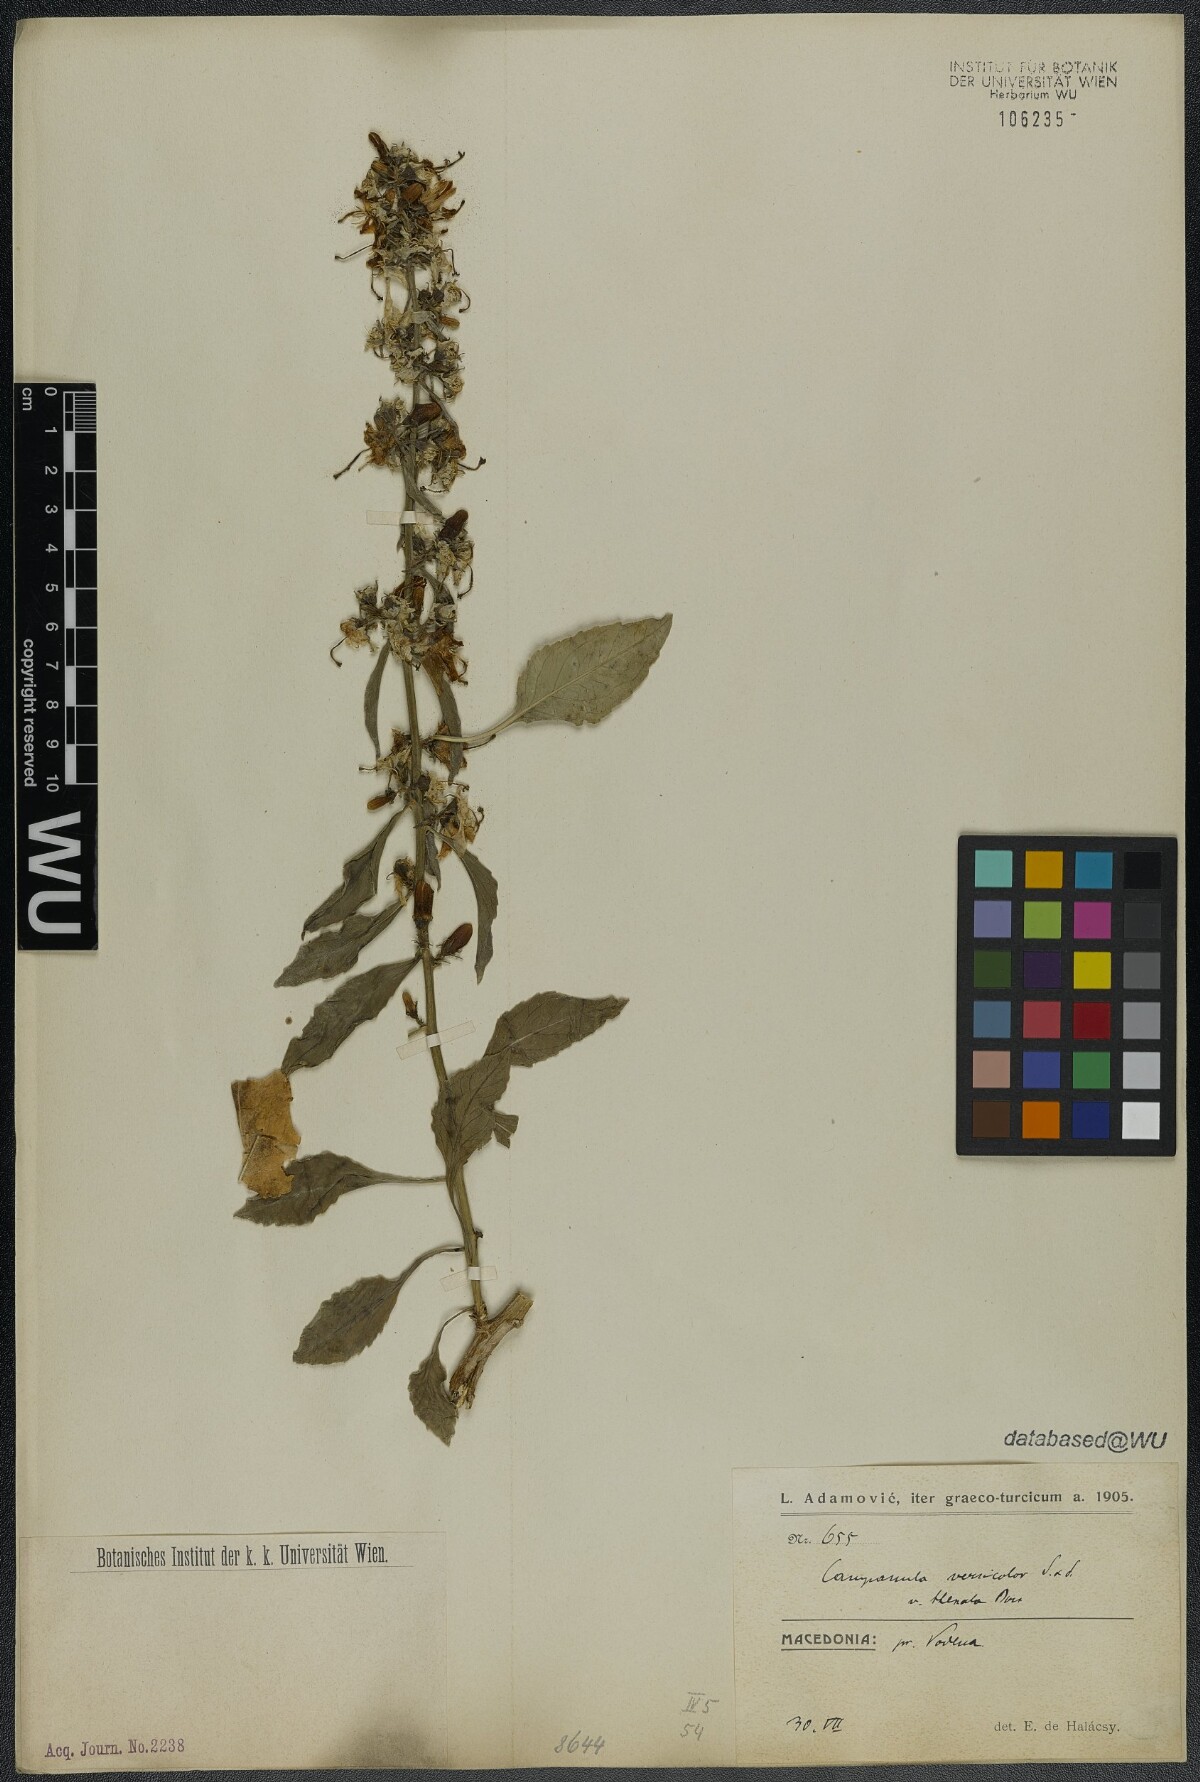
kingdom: Plantae
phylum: Tracheophyta
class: Magnoliopsida
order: Asterales
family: Campanulaceae
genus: Campanula
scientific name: Campanula versicolor
